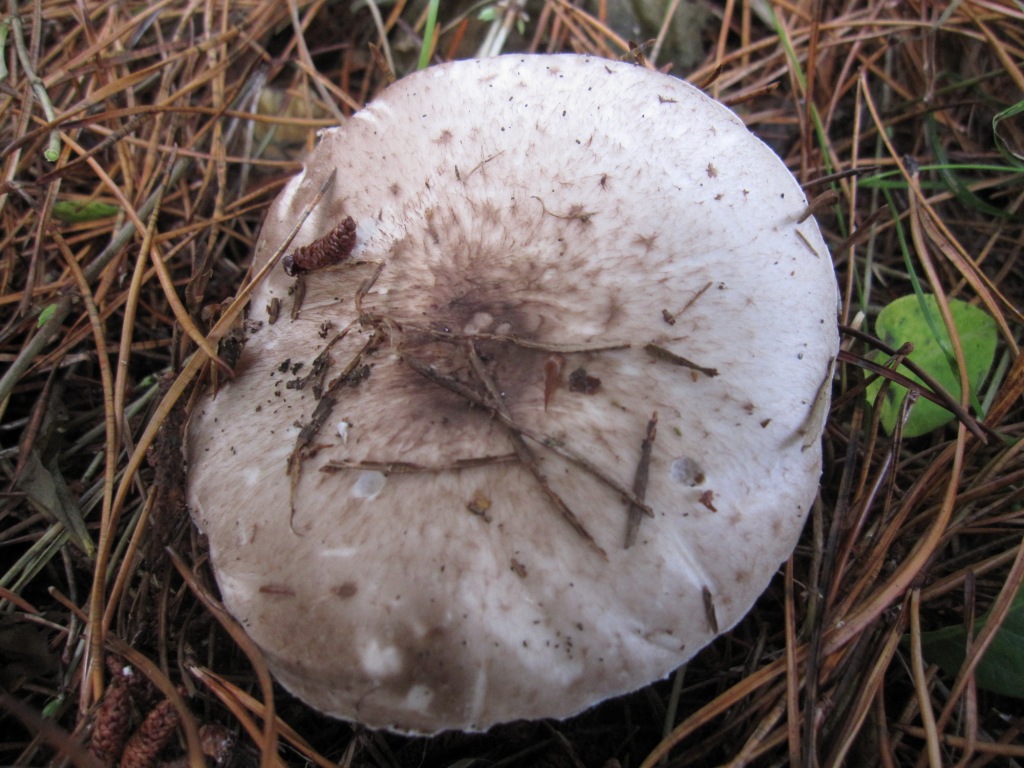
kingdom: Fungi
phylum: Basidiomycota
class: Agaricomycetes
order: Agaricales
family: Agaricaceae
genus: Agaricus
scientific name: Agaricus impudicus
